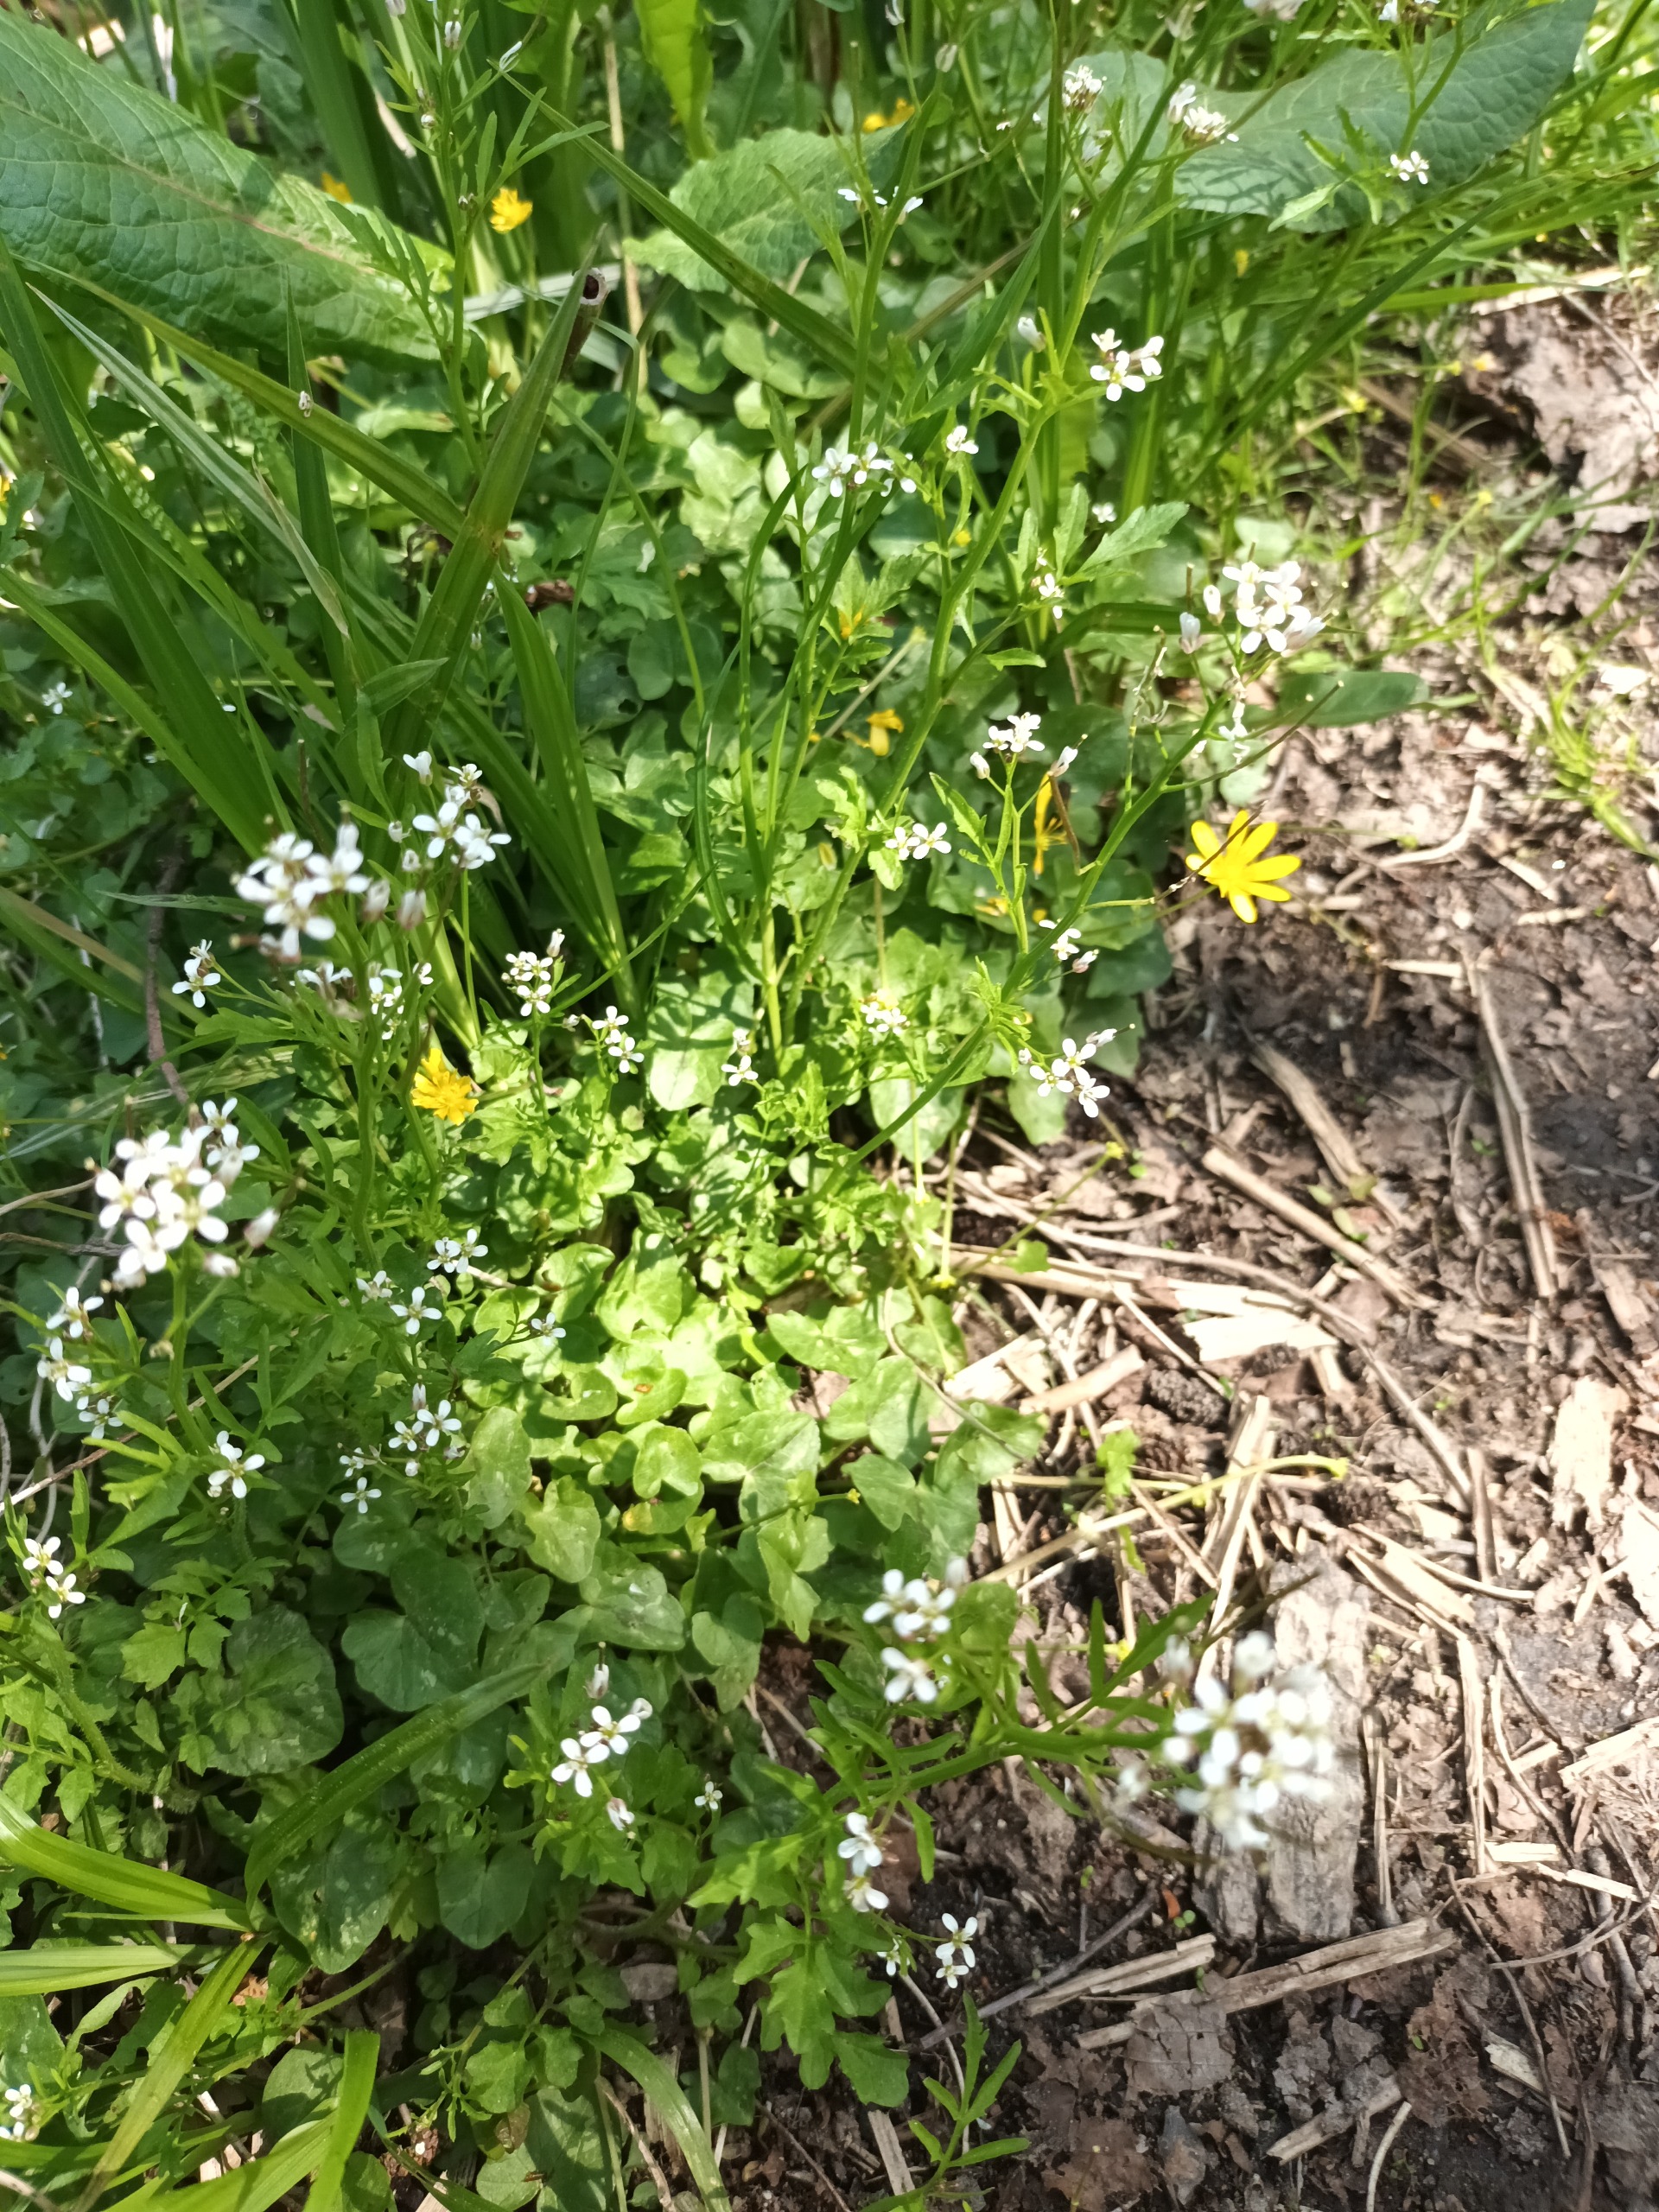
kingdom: Plantae
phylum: Tracheophyta
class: Magnoliopsida
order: Brassicales
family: Brassicaceae
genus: Cardamine
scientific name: Cardamine flexuosa
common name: Skov-springklap
